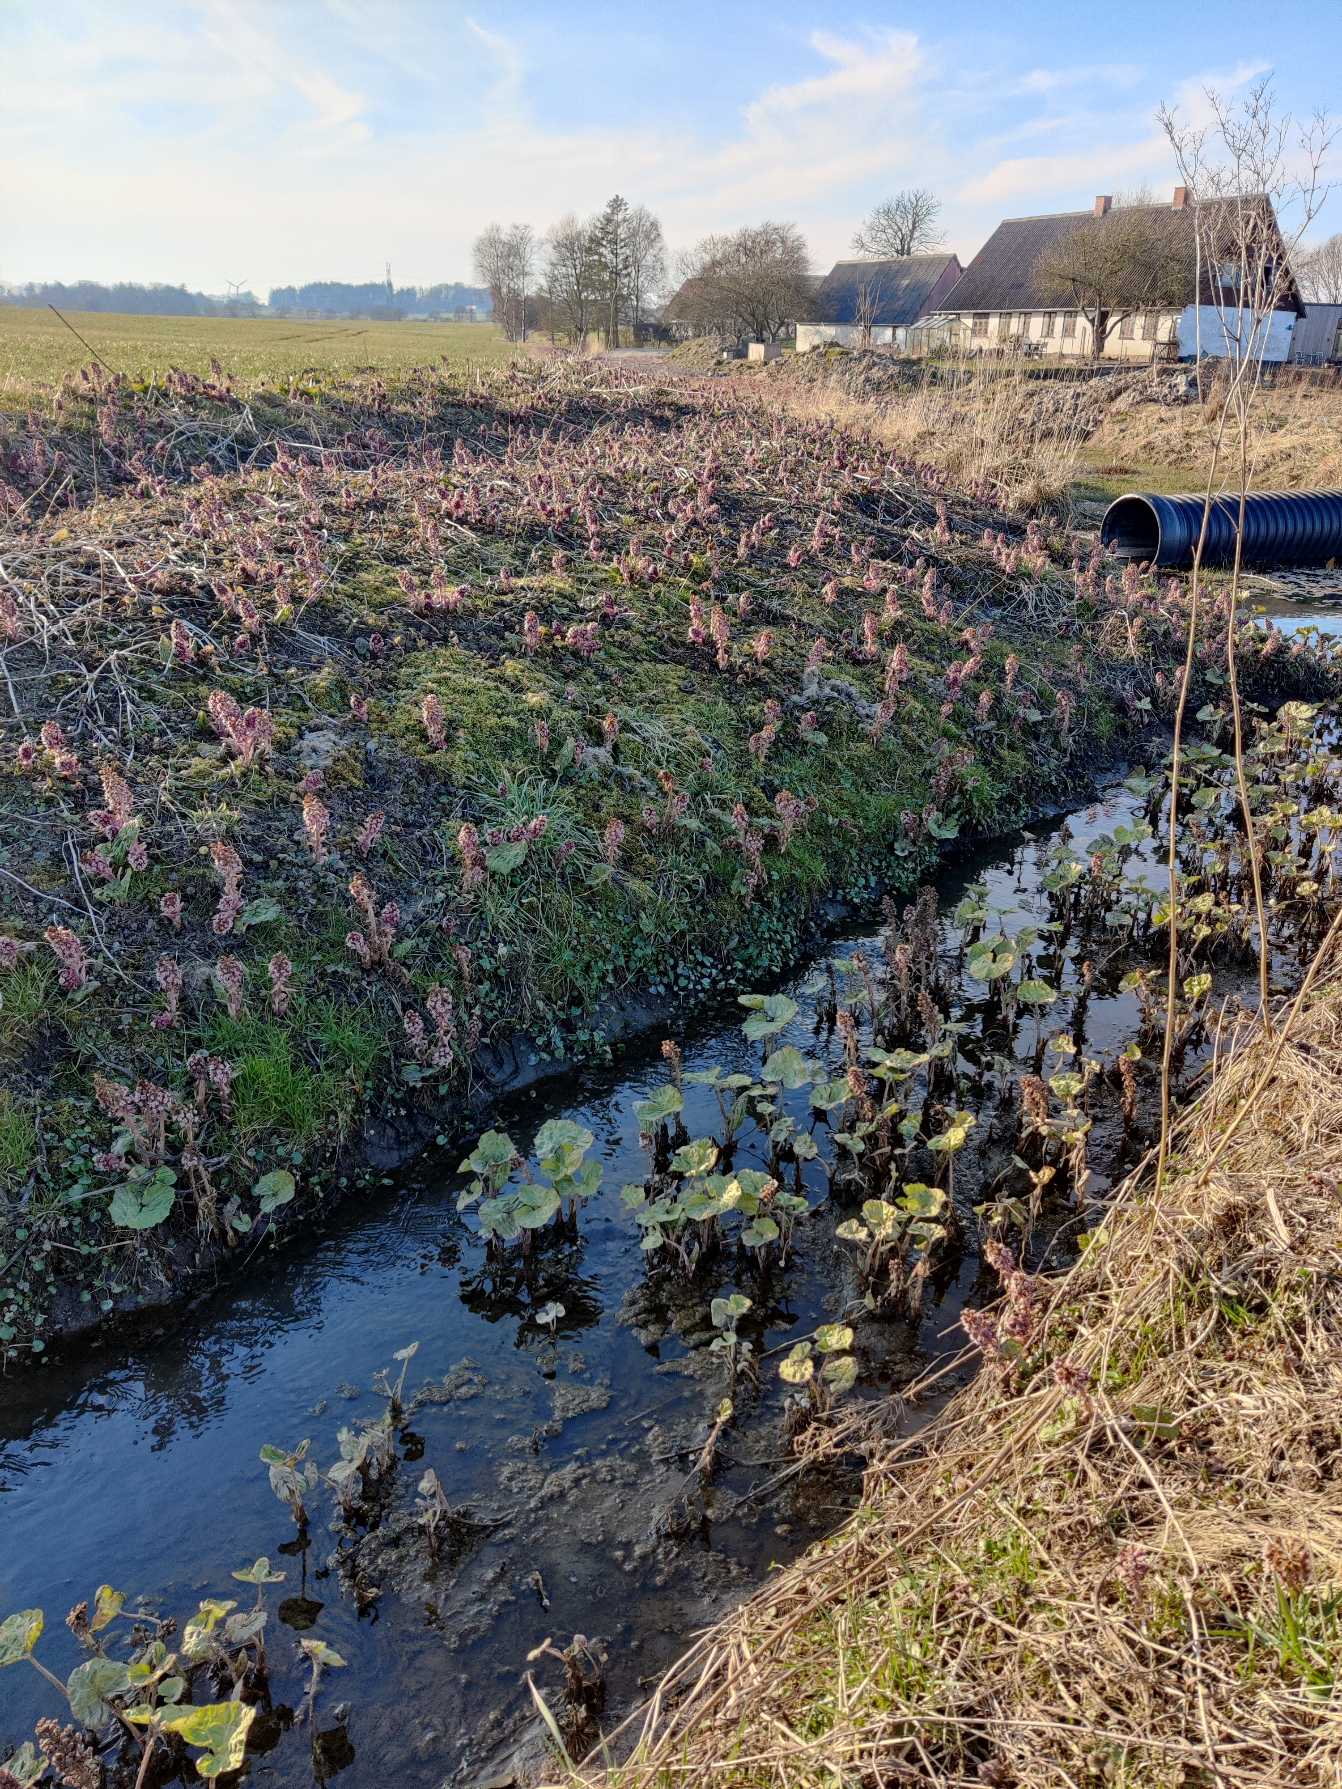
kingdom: Plantae
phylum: Tracheophyta
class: Magnoliopsida
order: Asterales
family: Asteraceae
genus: Petasites
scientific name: Petasites hybridus
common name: Rød hestehov
